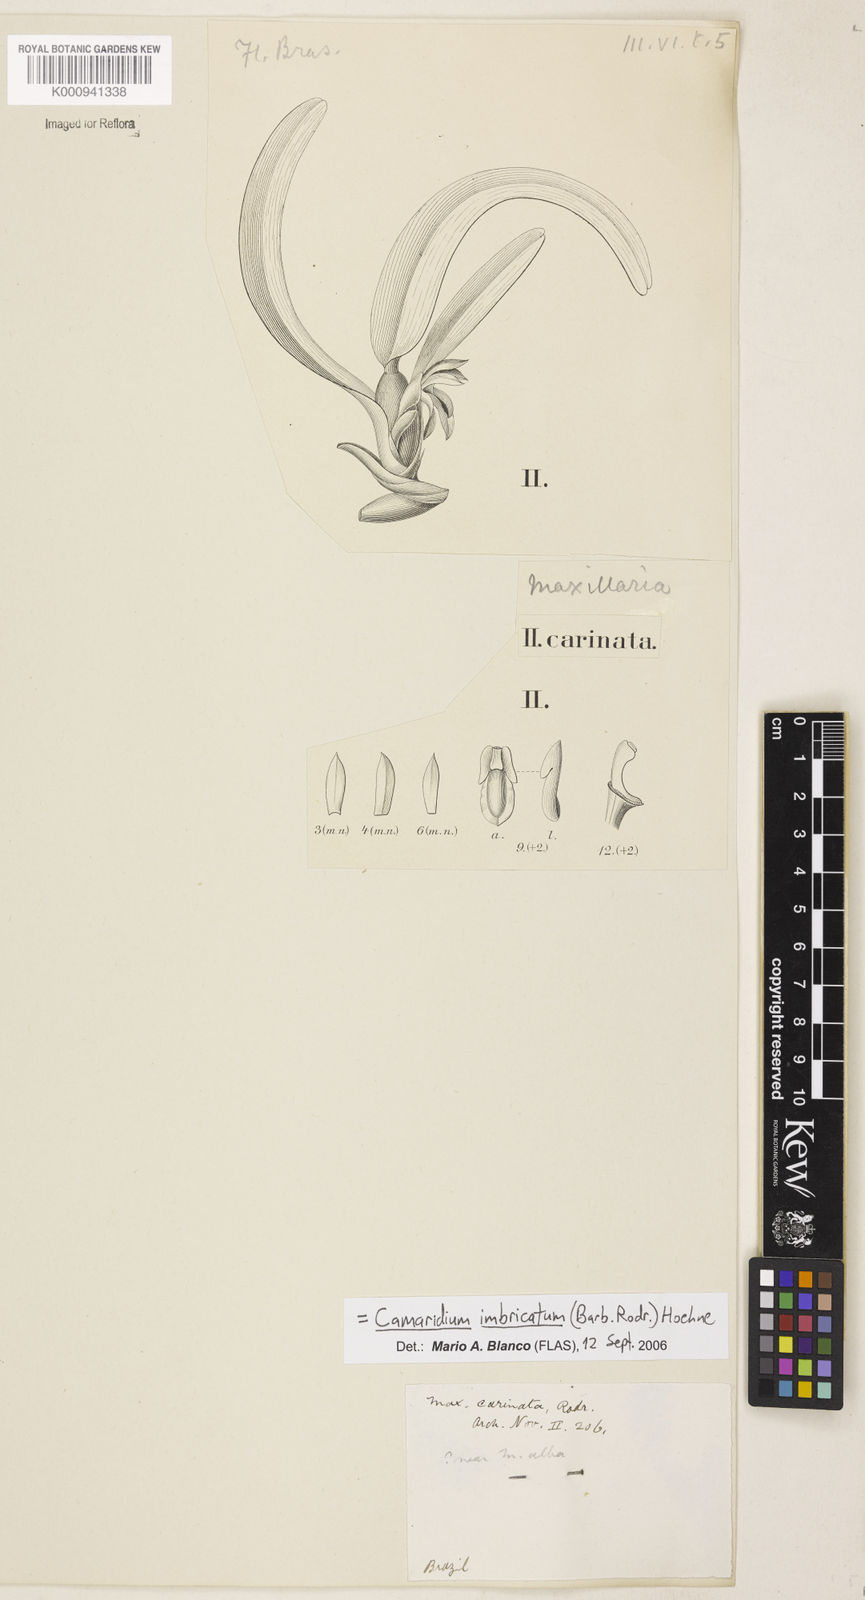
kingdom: Plantae
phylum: Tracheophyta
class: Liliopsida
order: Asparagales
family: Orchidaceae
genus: Maxillaria
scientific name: Maxillaria imbricata
